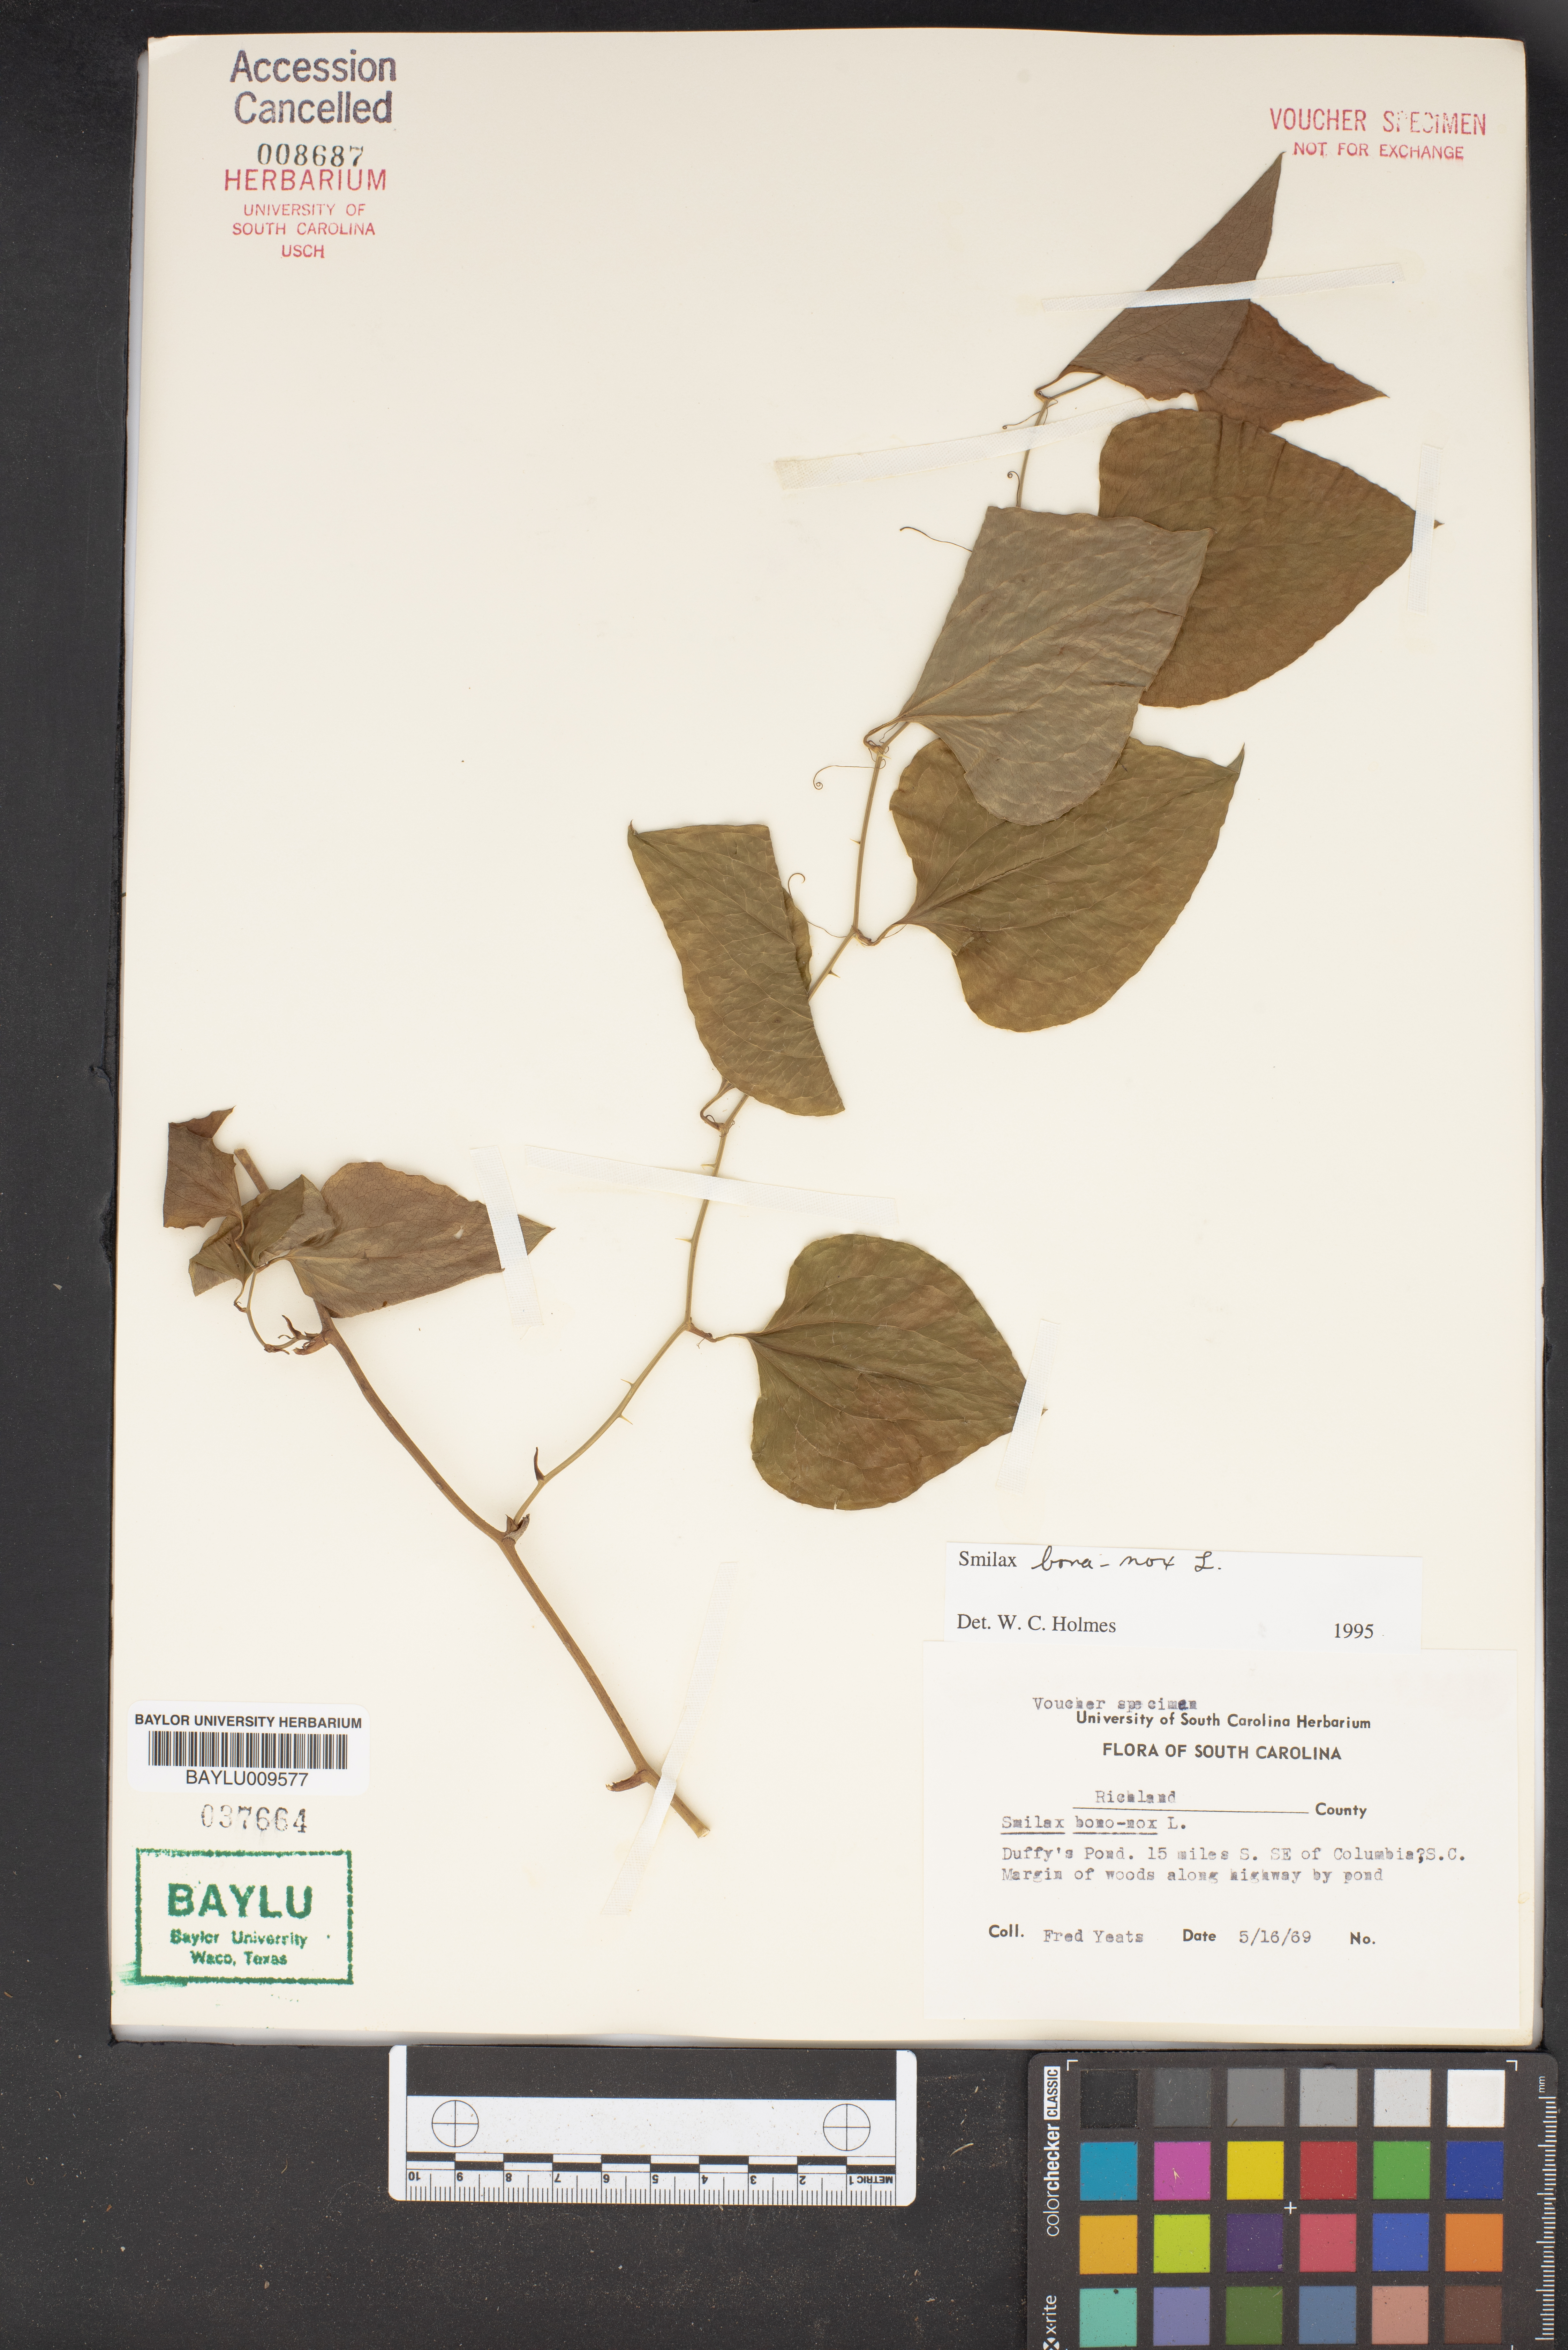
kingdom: Plantae
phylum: Tracheophyta
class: Liliopsida
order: Liliales
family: Smilacaceae
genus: Smilax
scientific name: Smilax bona-nox
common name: Catbrier
